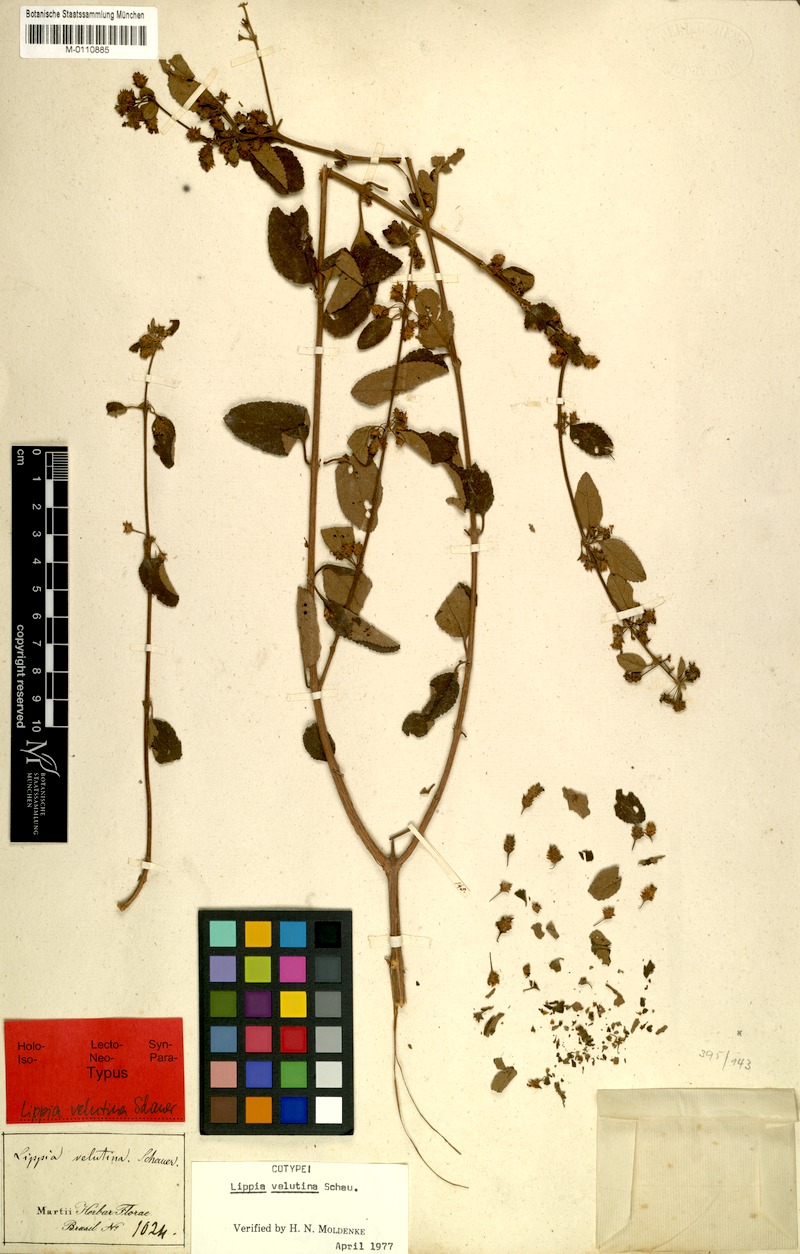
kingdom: Plantae
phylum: Tracheophyta
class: Magnoliopsida
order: Lamiales
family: Verbenaceae
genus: Lippia
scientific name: Lippia origanoides
